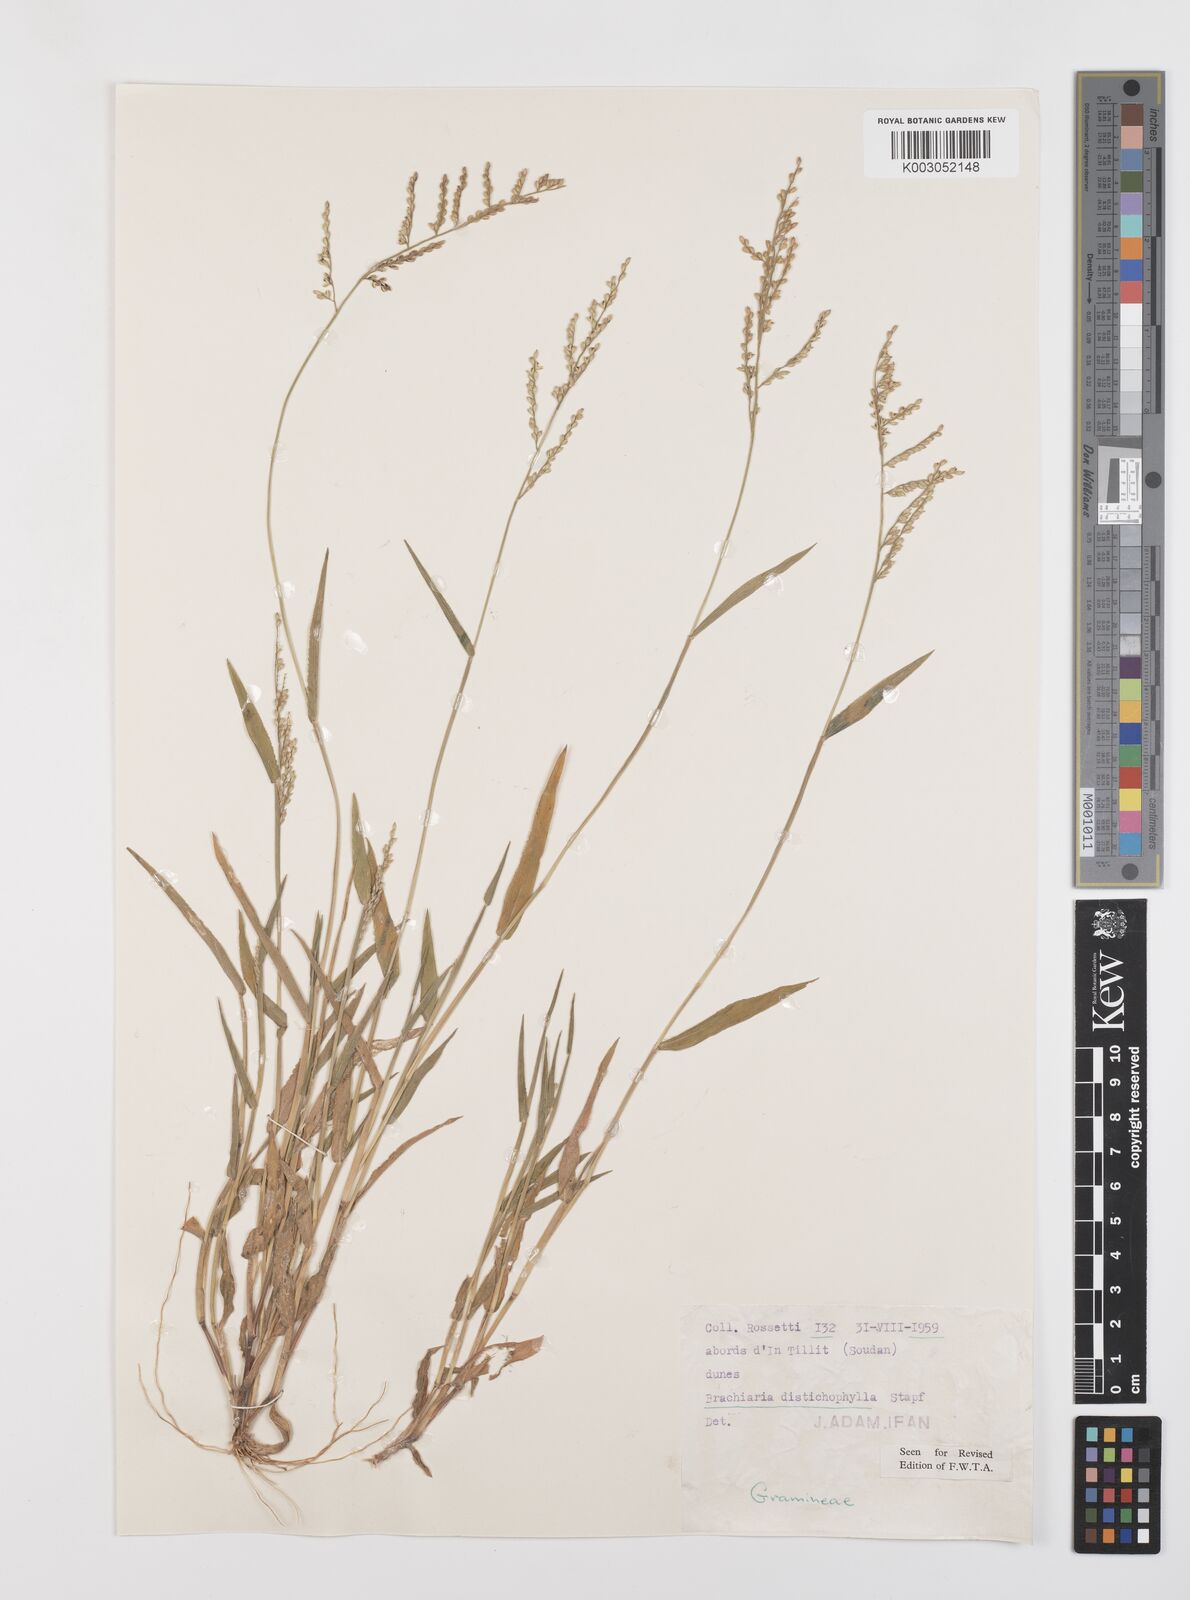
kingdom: Plantae
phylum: Tracheophyta
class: Liliopsida
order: Poales
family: Poaceae
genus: Urochloa
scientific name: Urochloa villosa
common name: Hairy signalgrass
